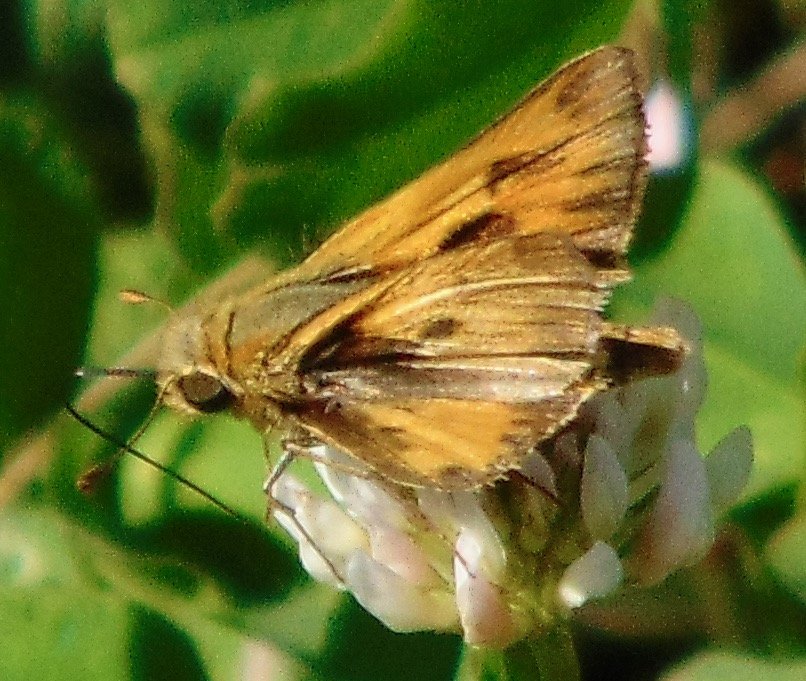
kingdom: Animalia
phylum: Arthropoda
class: Insecta
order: Lepidoptera
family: Hesperiidae
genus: Hylephila
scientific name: Hylephila phyleus
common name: Fiery Skipper
